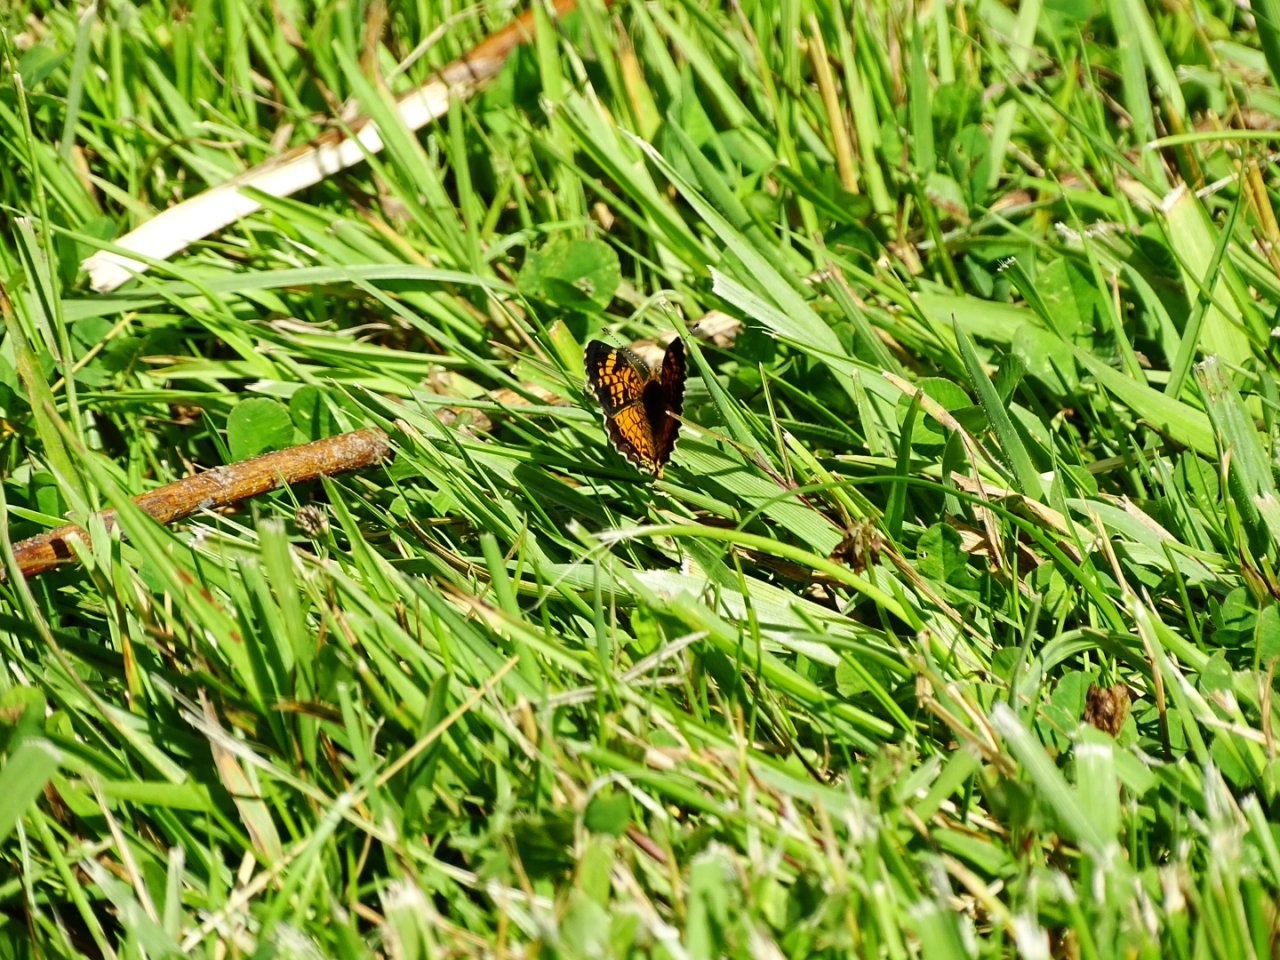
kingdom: Animalia
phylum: Arthropoda
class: Insecta
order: Lepidoptera
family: Nymphalidae
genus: Phyciodes
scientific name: Phyciodes tharos
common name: Pearl Crescent
